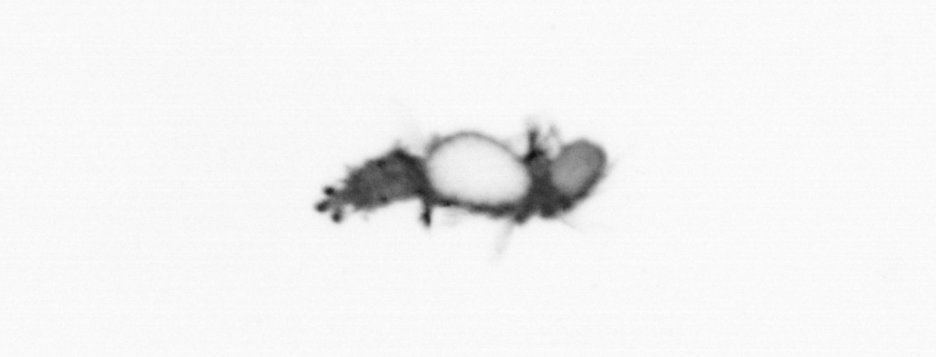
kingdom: Animalia
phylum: Annelida
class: Polychaeta
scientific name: Polychaeta
